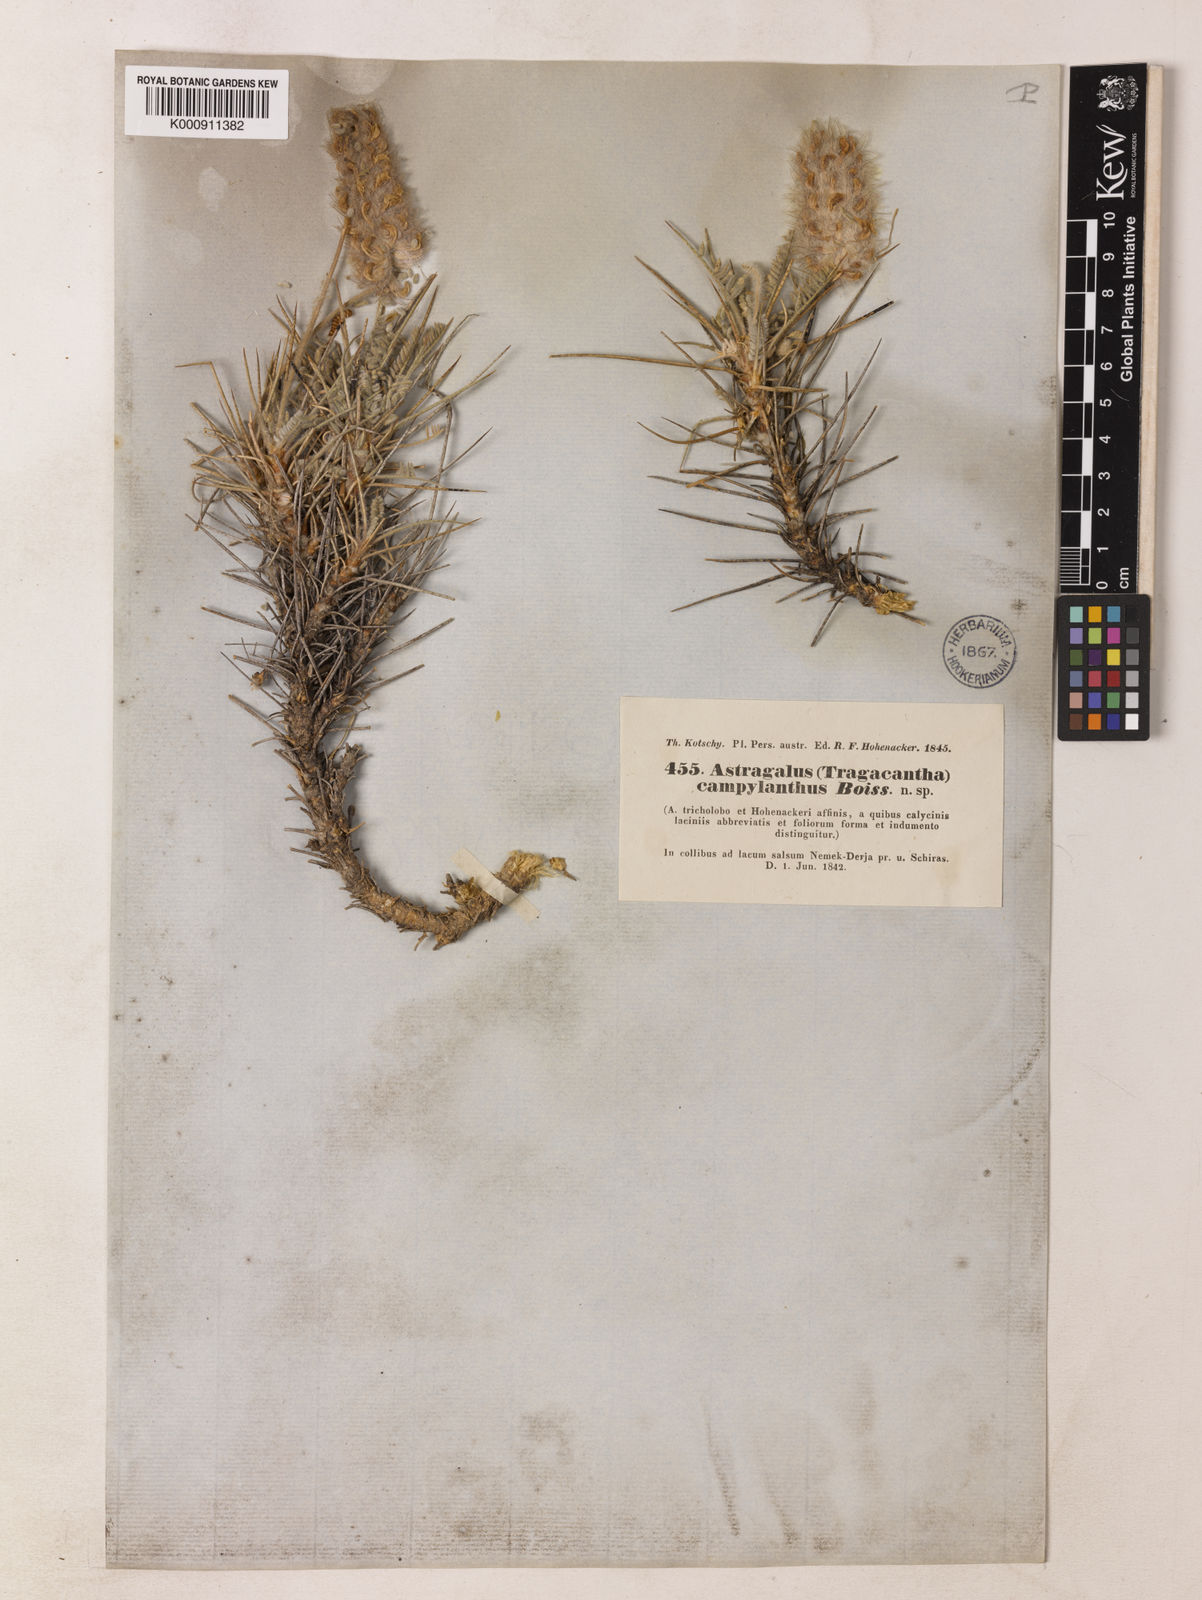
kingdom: Plantae
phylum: Tracheophyta
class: Magnoliopsida
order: Fabales
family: Fabaceae
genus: Astragalus
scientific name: Astragalus campylanthus
